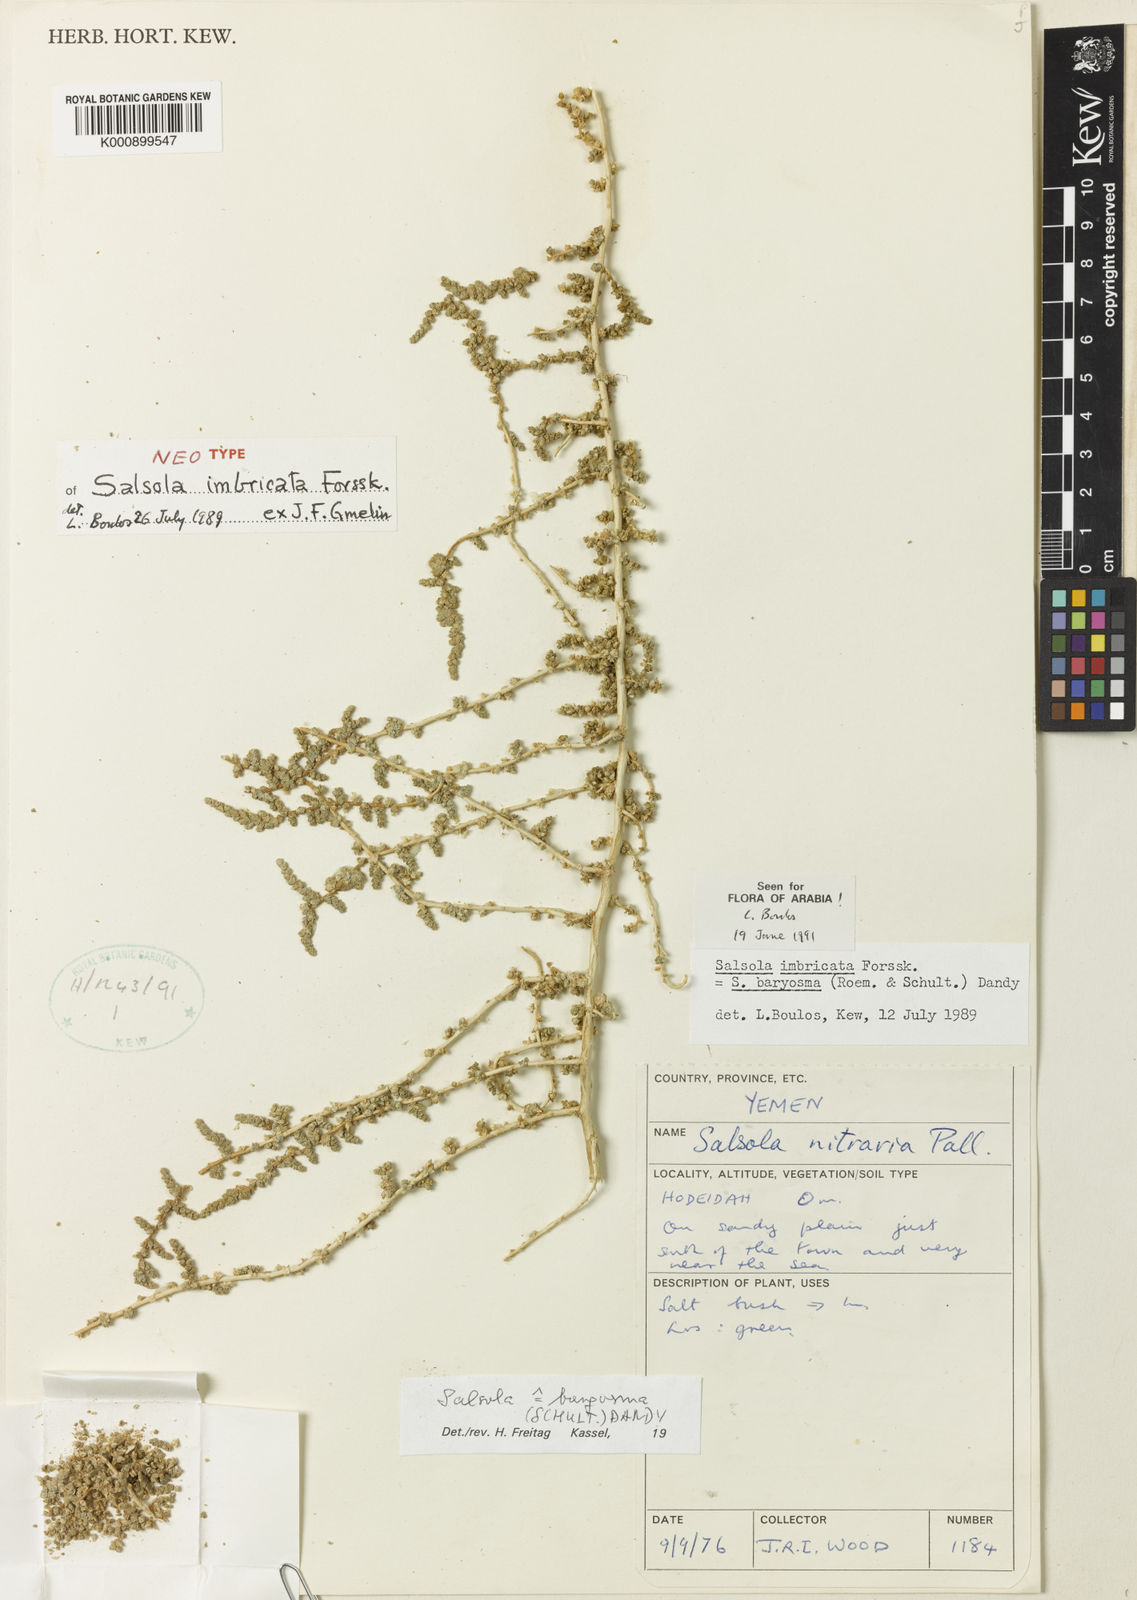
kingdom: Plantae
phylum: Tracheophyta
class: Magnoliopsida
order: Caryophyllales
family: Amaranthaceae
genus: Salsola
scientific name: Salsola
